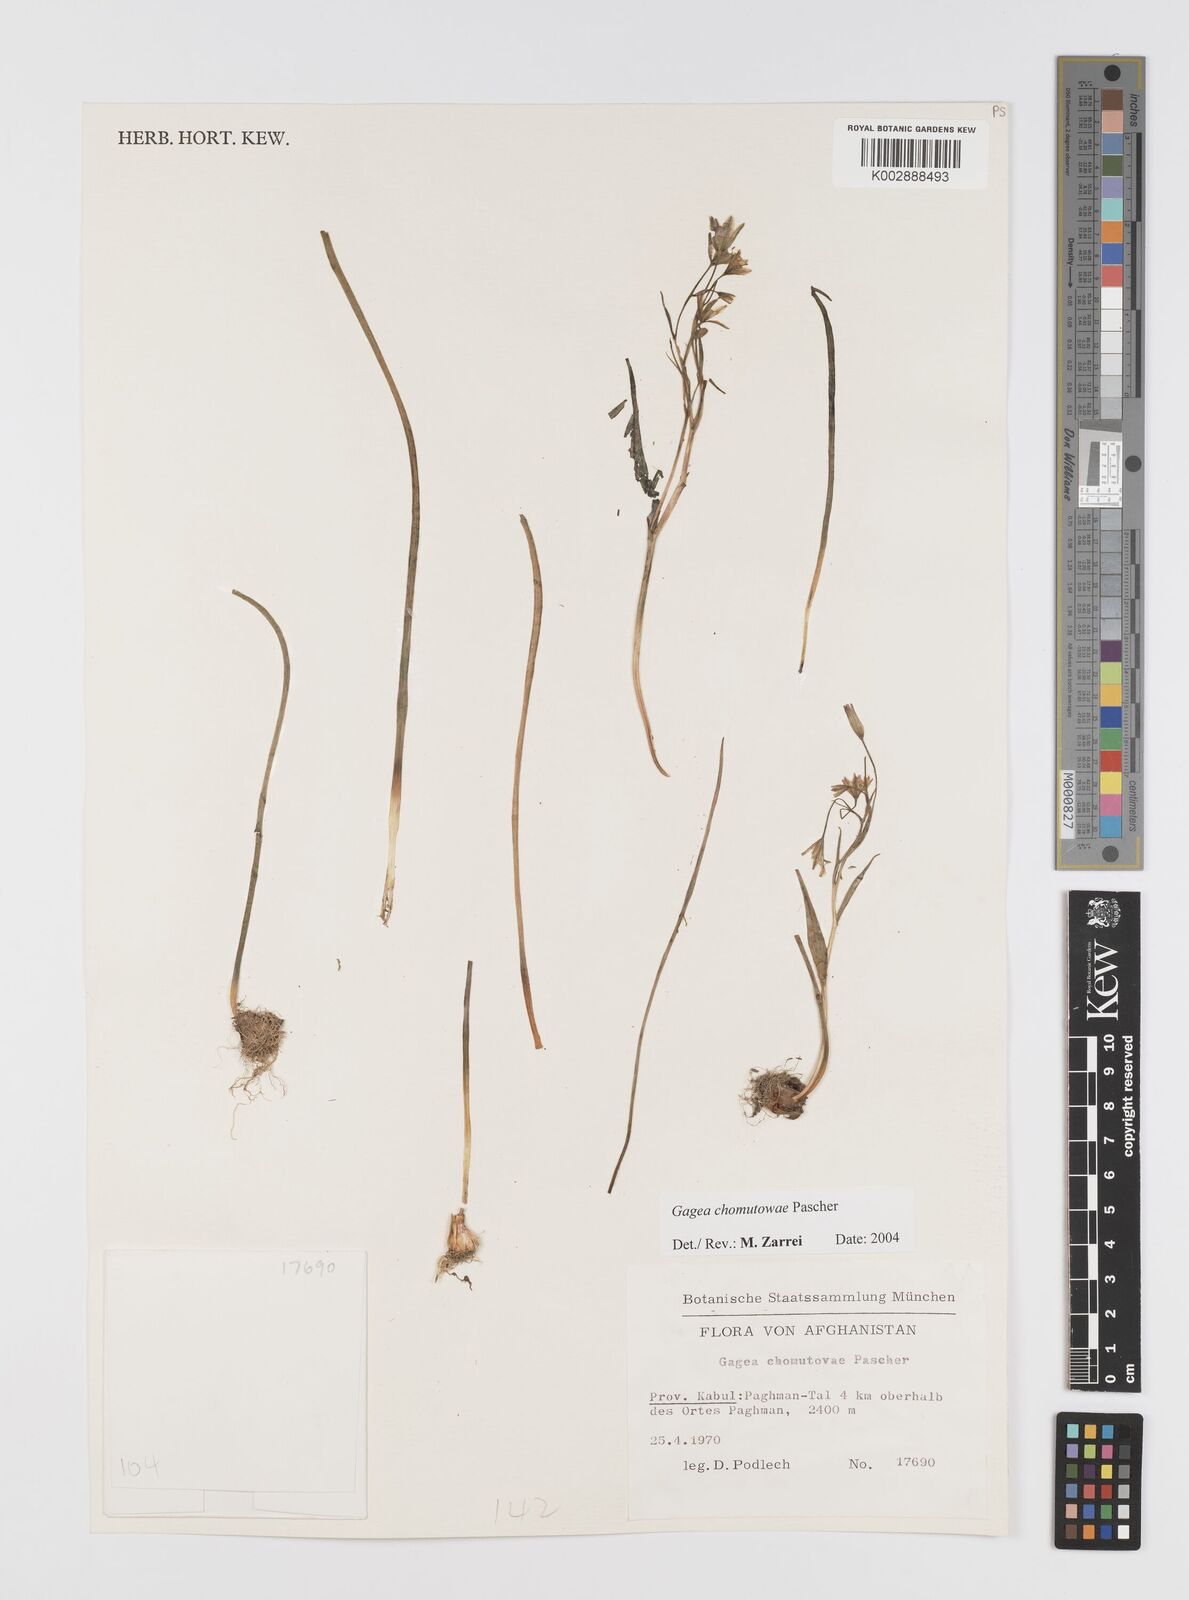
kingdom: Plantae
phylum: Tracheophyta
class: Liliopsida
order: Liliales
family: Liliaceae
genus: Gagea
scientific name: Gagea chomutovae
